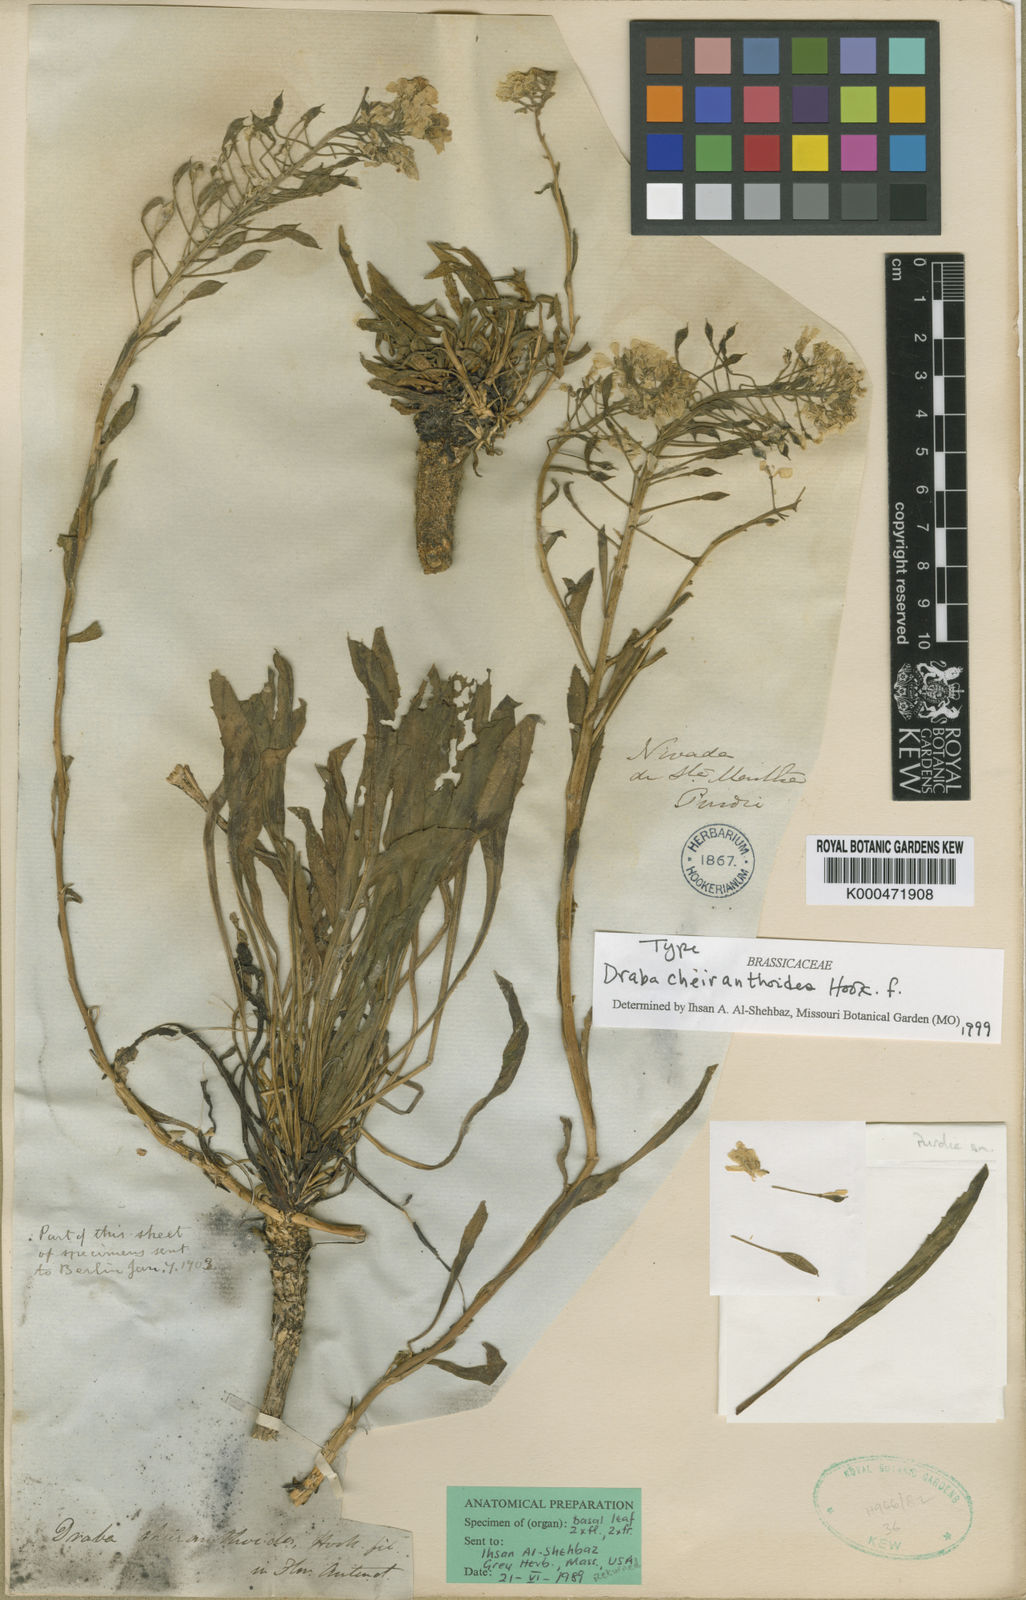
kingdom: Plantae
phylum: Tracheophyta
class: Magnoliopsida
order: Brassicales
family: Brassicaceae
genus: Draba
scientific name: Draba cheiranthoides
